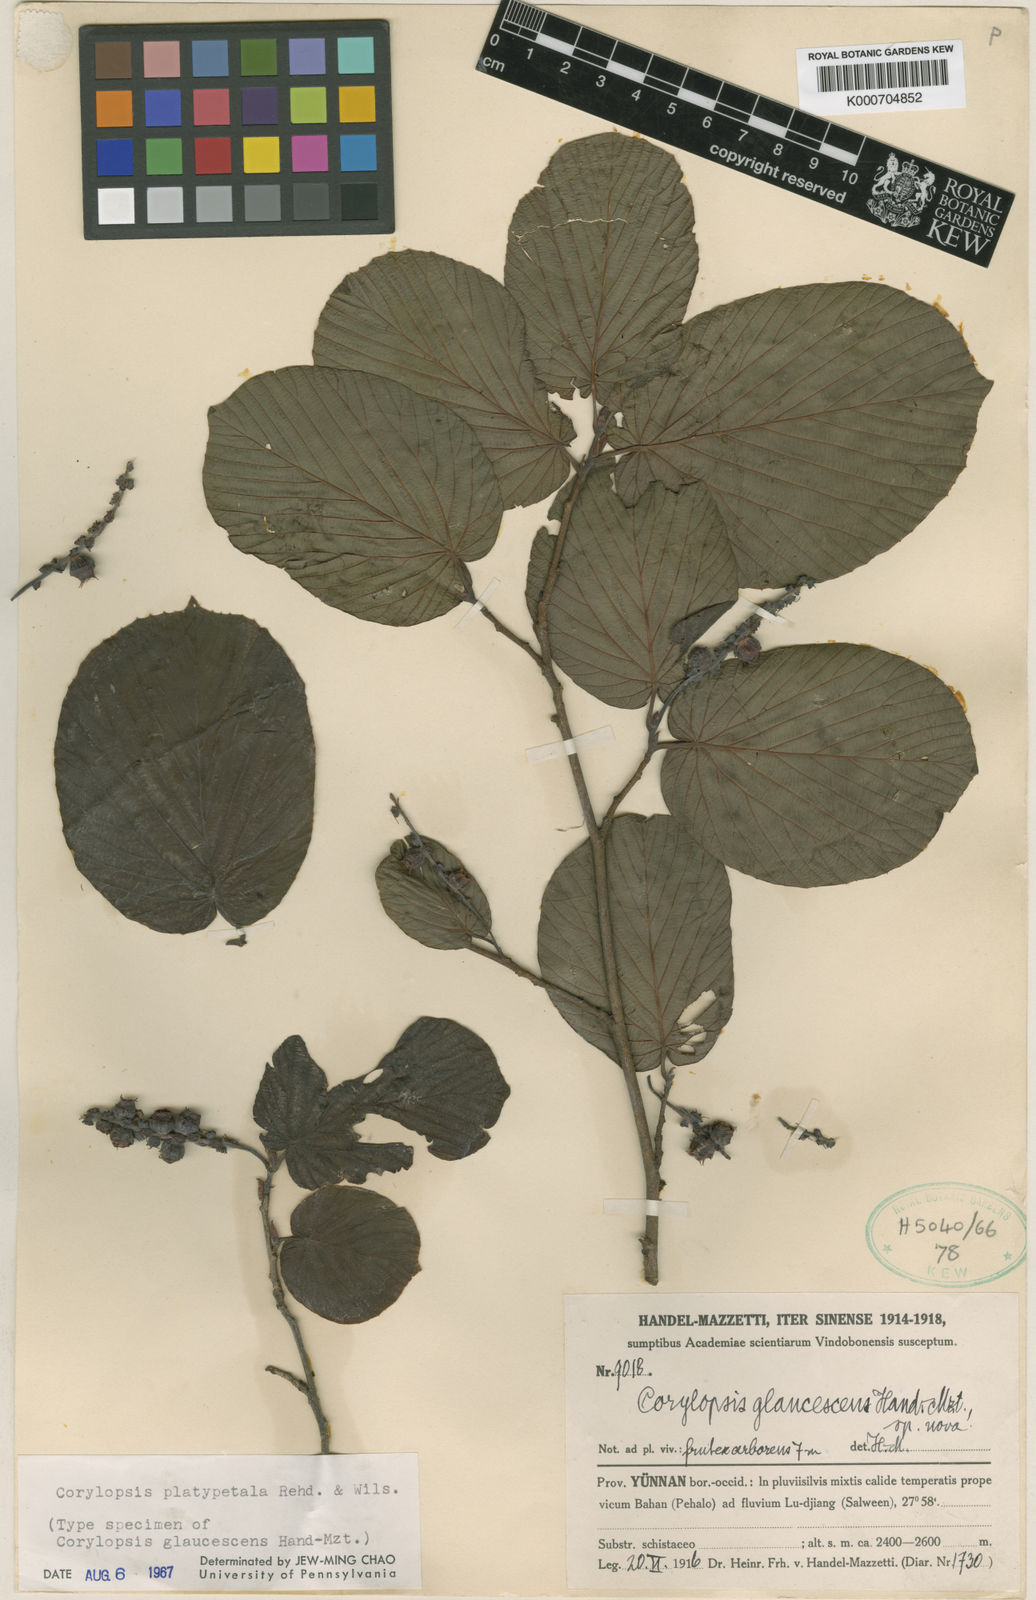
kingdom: Plantae
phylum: Tracheophyta
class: Magnoliopsida
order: Saxifragales
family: Hamamelidaceae
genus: Corylopsis
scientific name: Corylopsis sinensis
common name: Winter hazel
